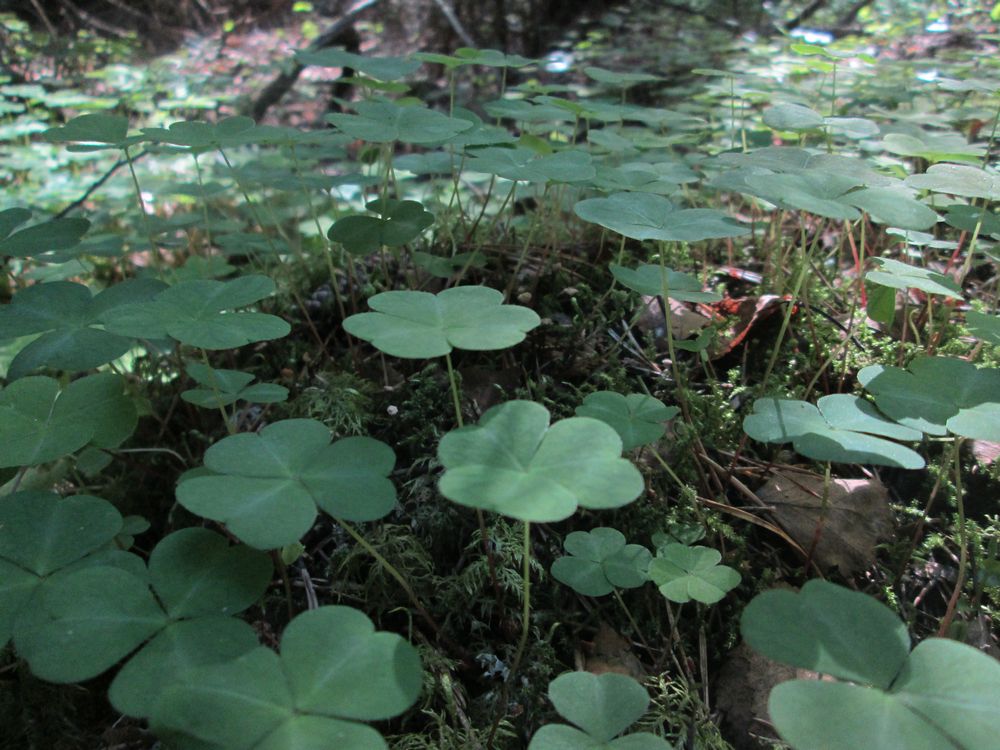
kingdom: Plantae
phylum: Tracheophyta
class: Magnoliopsida
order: Oxalidales
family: Oxalidaceae
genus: Oxalis
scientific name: Oxalis acetosella
